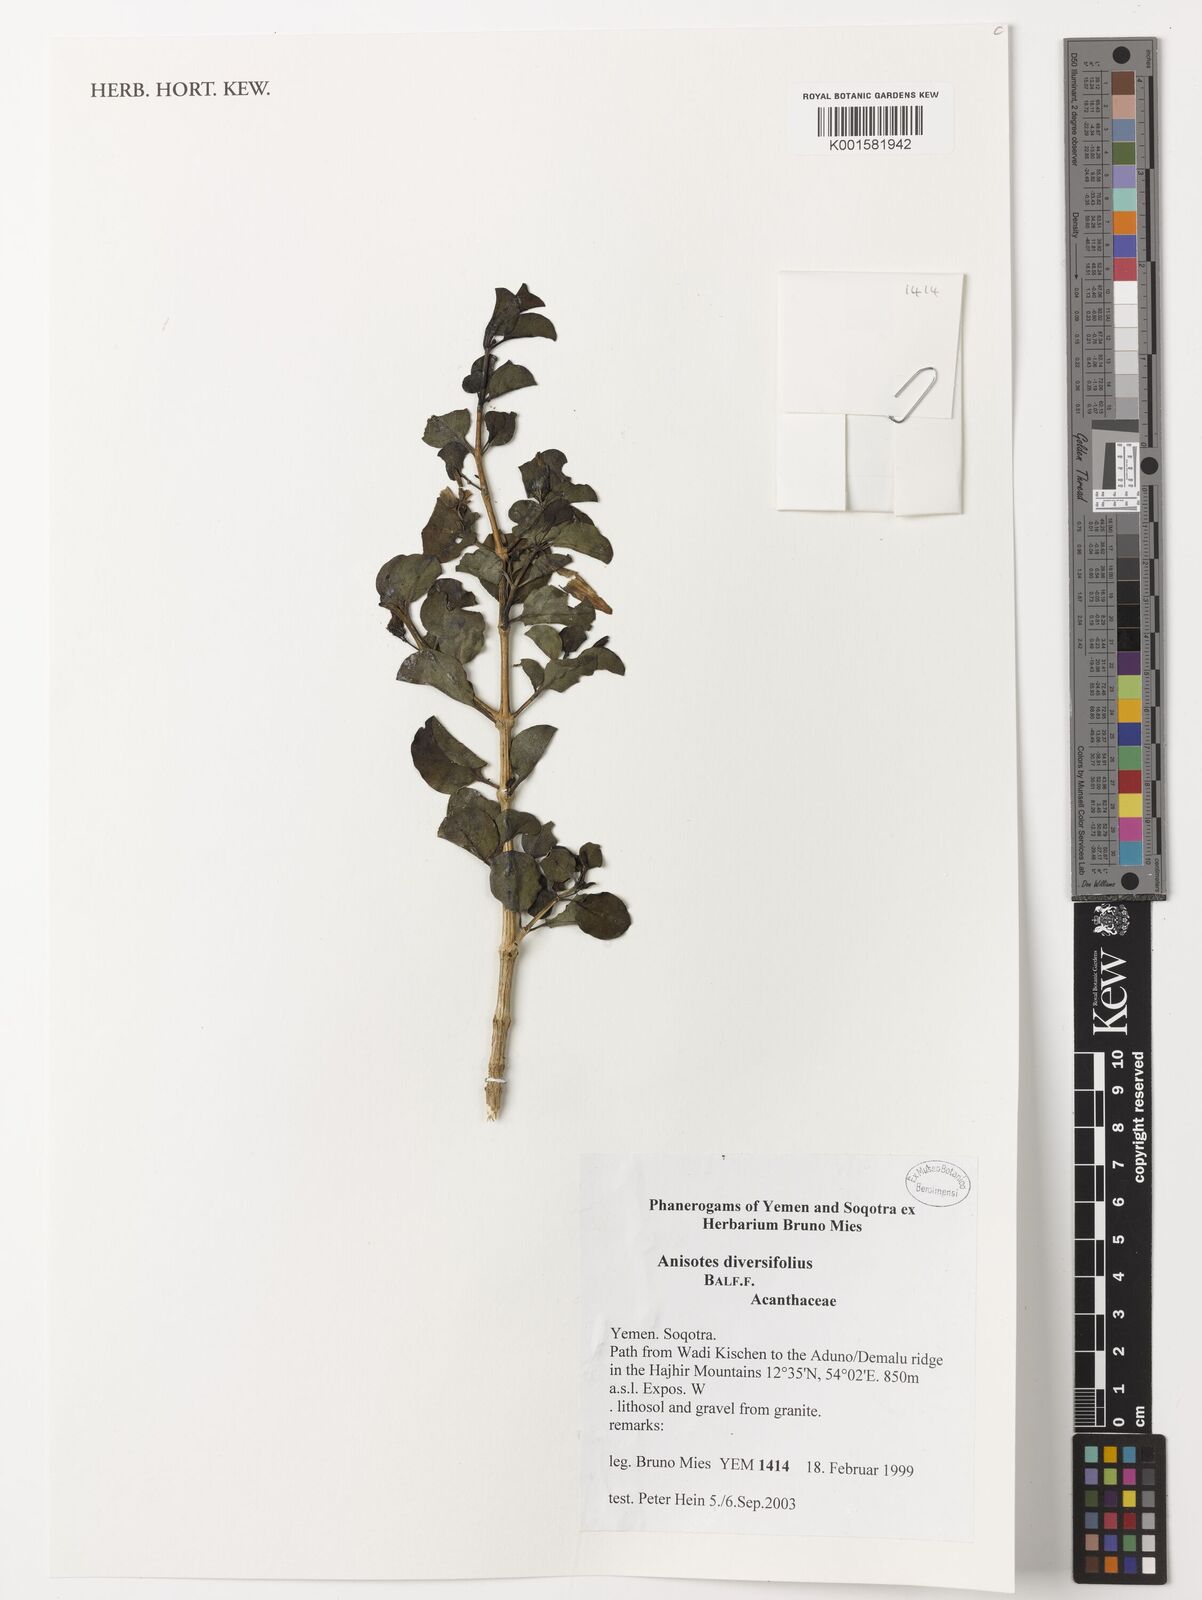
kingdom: Plantae
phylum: Tracheophyta
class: Magnoliopsida
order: Lamiales
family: Acanthaceae
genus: Anisotes
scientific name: Anisotes diversifolius
